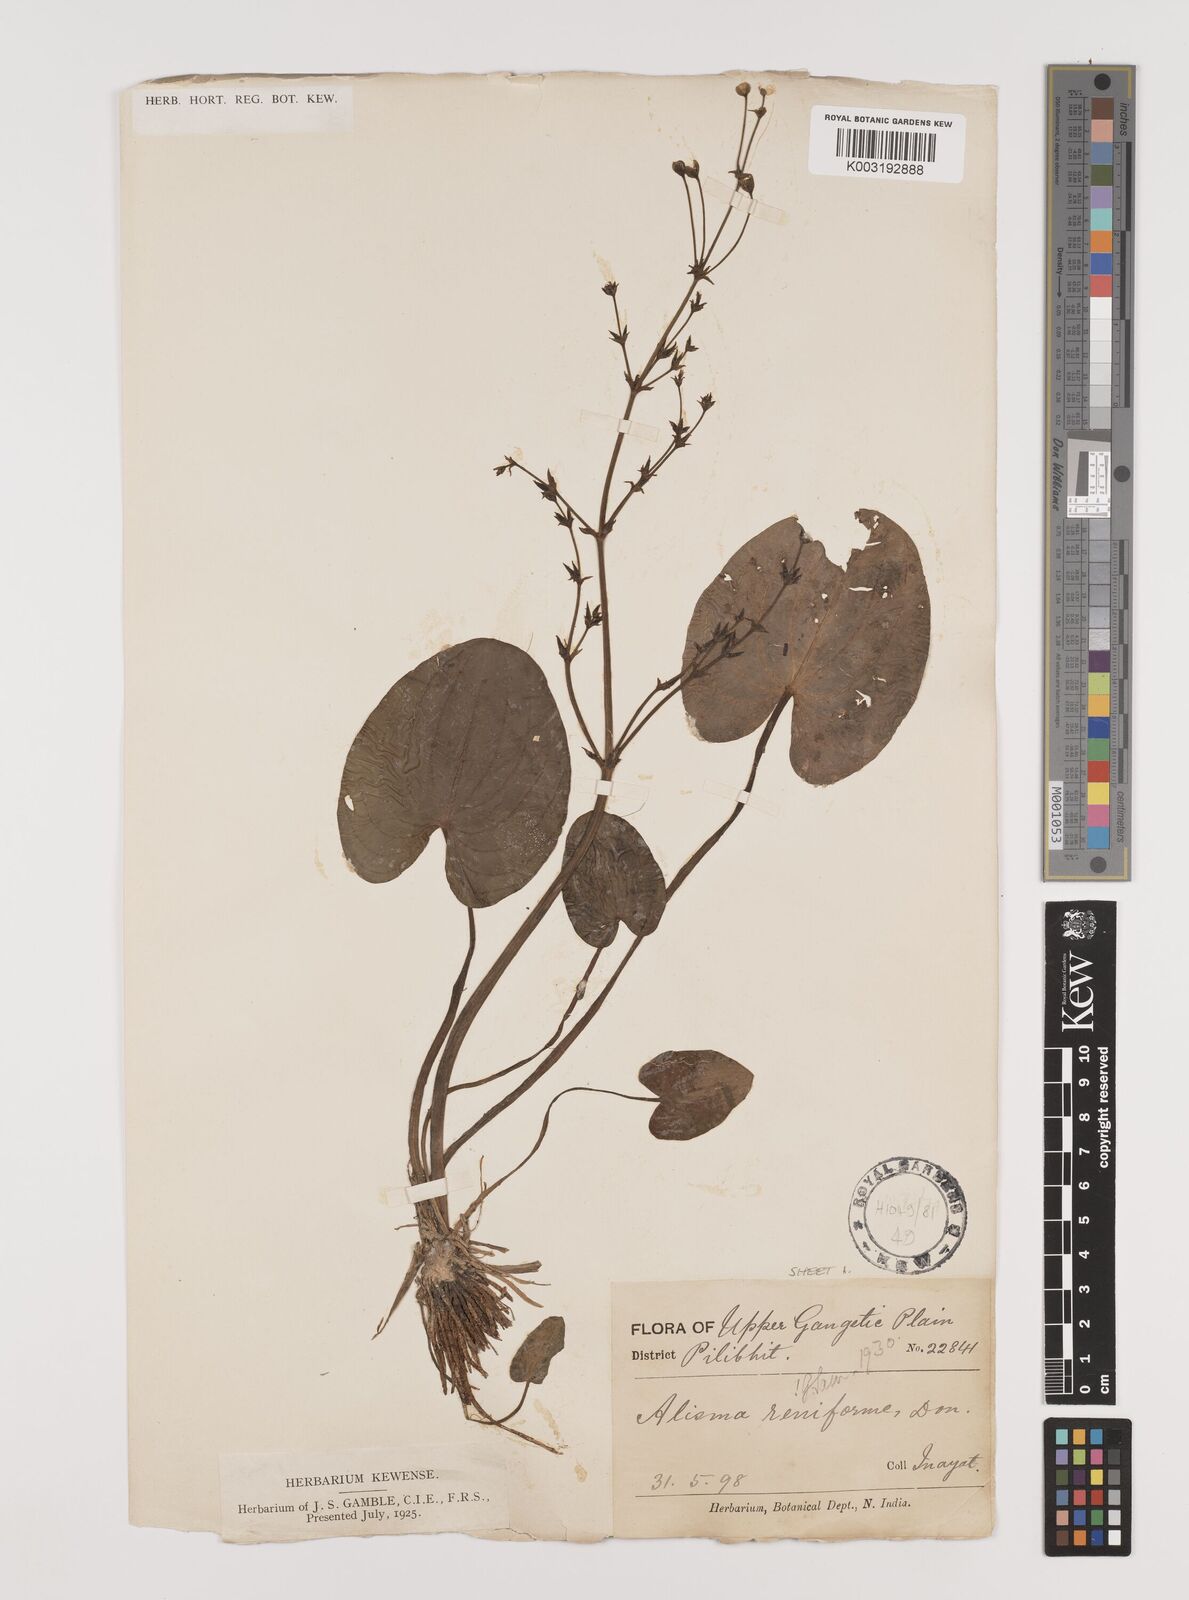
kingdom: Plantae
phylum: Tracheophyta
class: Liliopsida
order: Alismatales
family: Alismataceae
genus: Caldesia
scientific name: Caldesia parnassifolia
